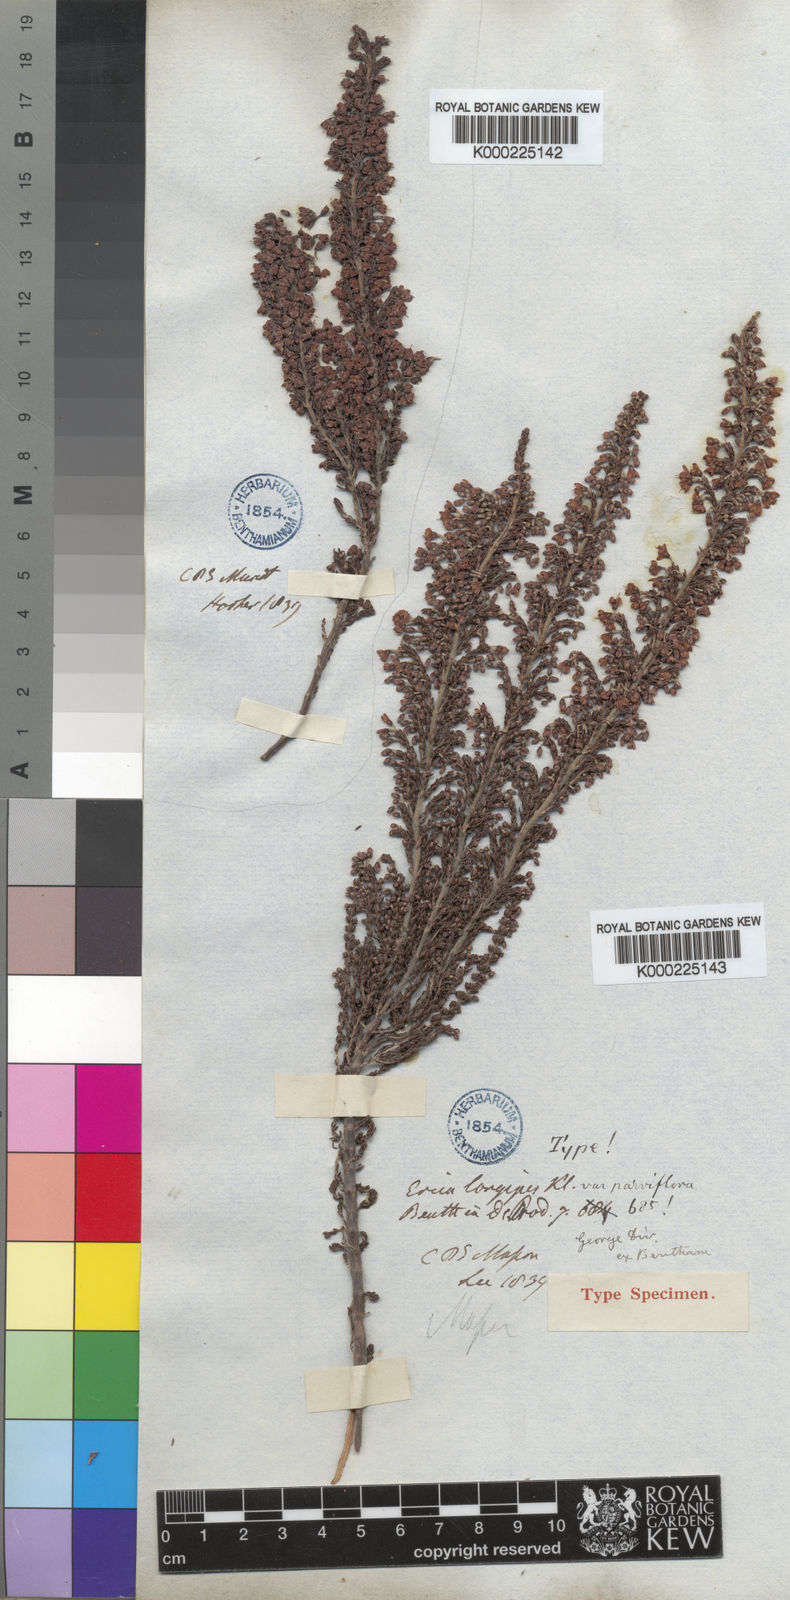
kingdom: Plantae
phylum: Tracheophyta
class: Magnoliopsida
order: Ericales
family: Ericaceae
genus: Erica
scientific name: Erica
